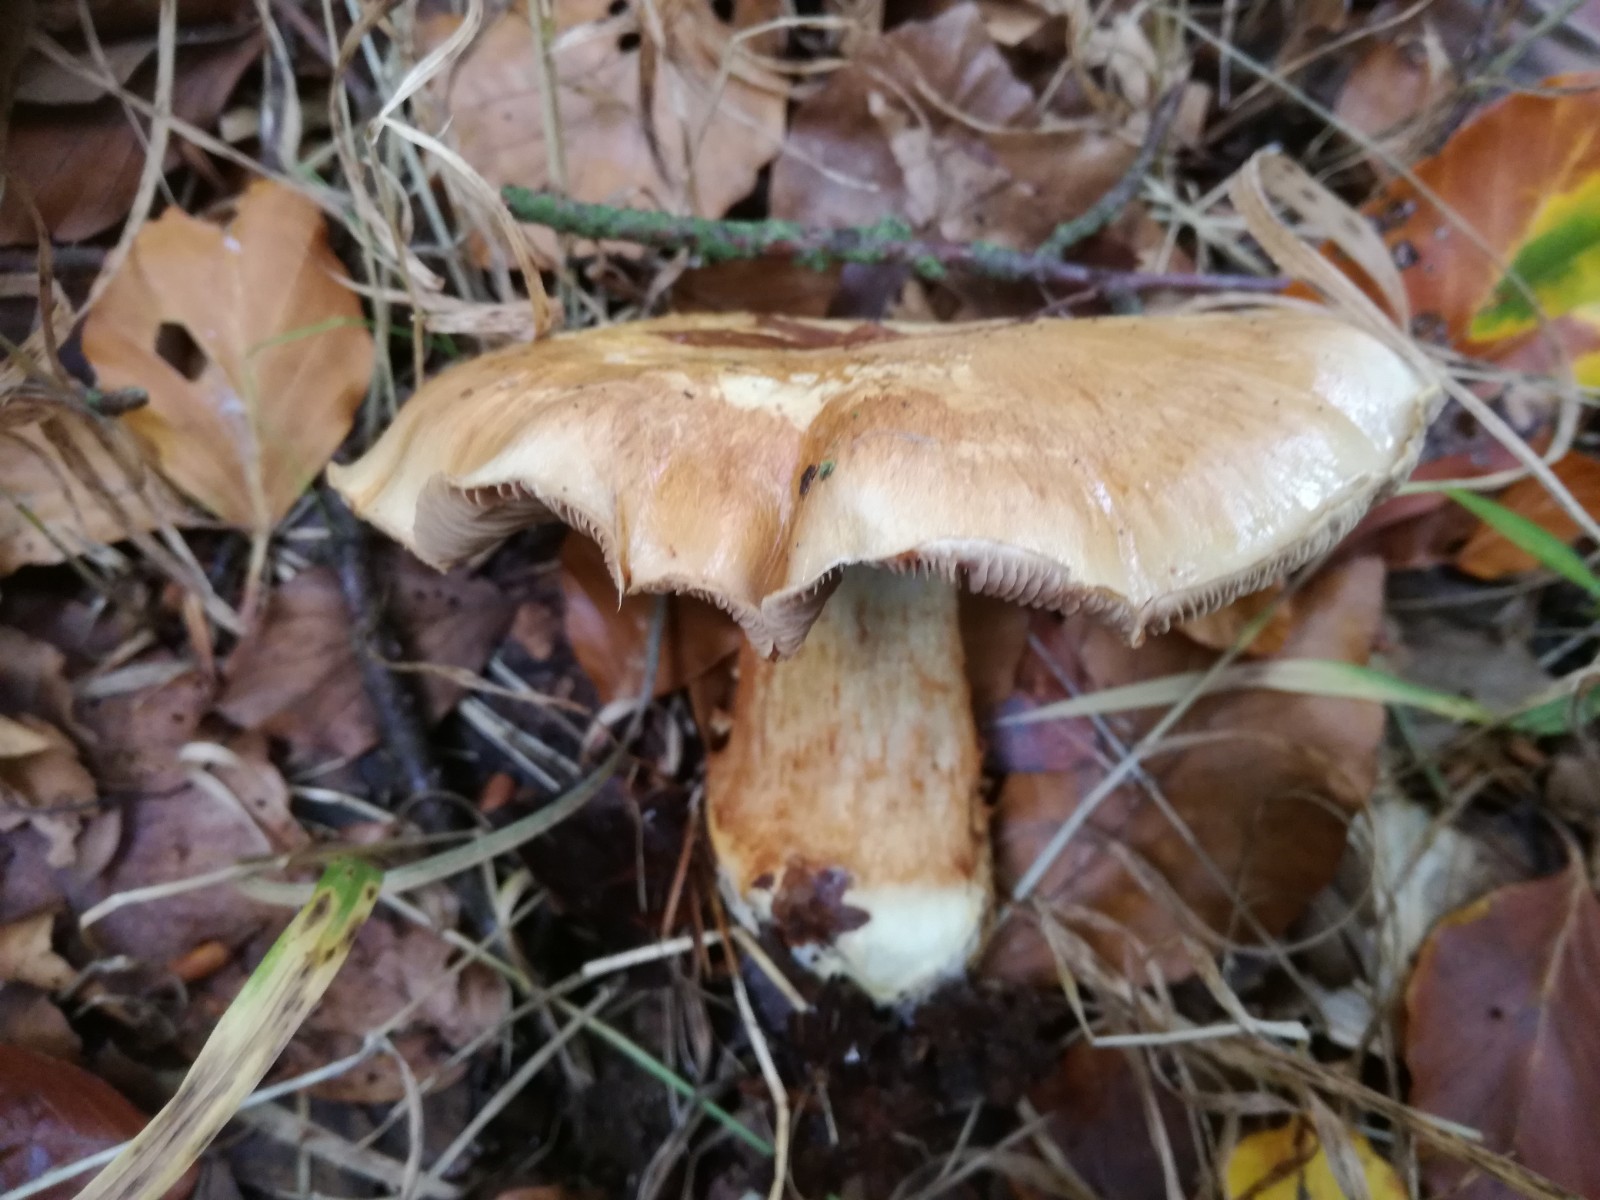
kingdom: Fungi
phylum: Basidiomycota
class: Agaricomycetes
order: Agaricales
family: Cortinariaceae
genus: Phlegmacium
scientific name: Phlegmacium luhmannii
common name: musegrå slørhat
